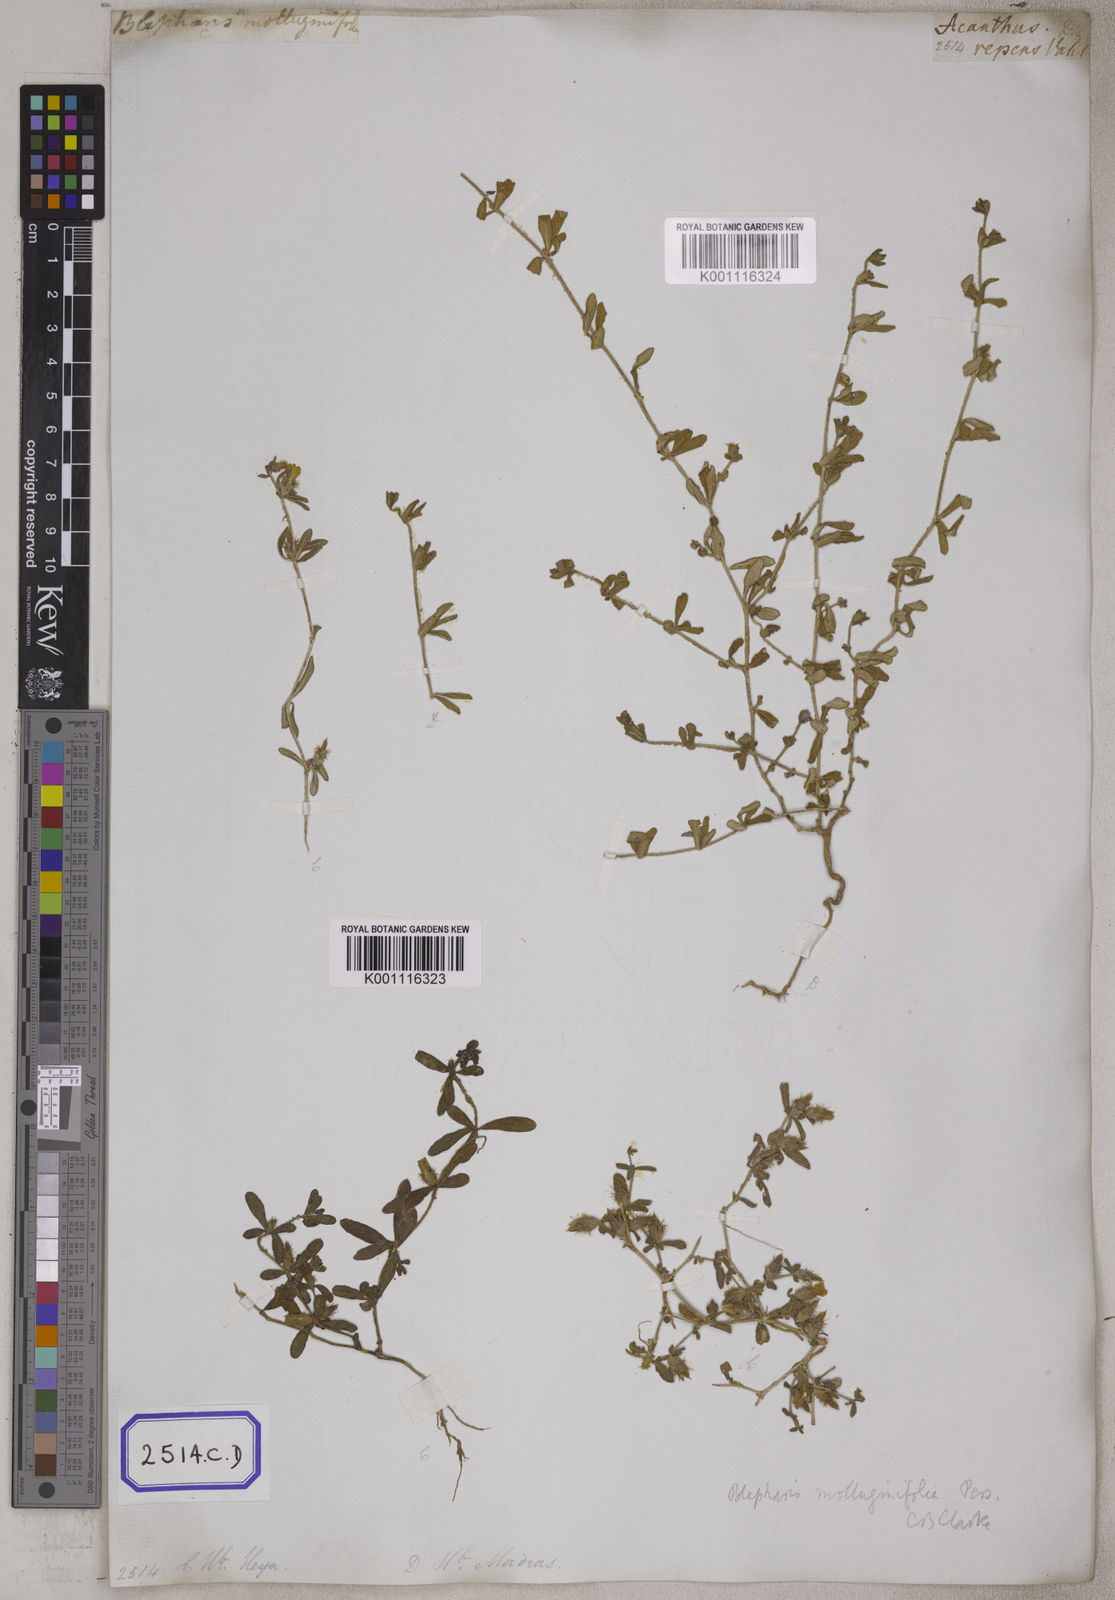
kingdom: Plantae
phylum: Tracheophyta
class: Magnoliopsida
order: Lamiales
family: Acanthaceae
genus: Blepharis
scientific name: Blepharis integrifolia
